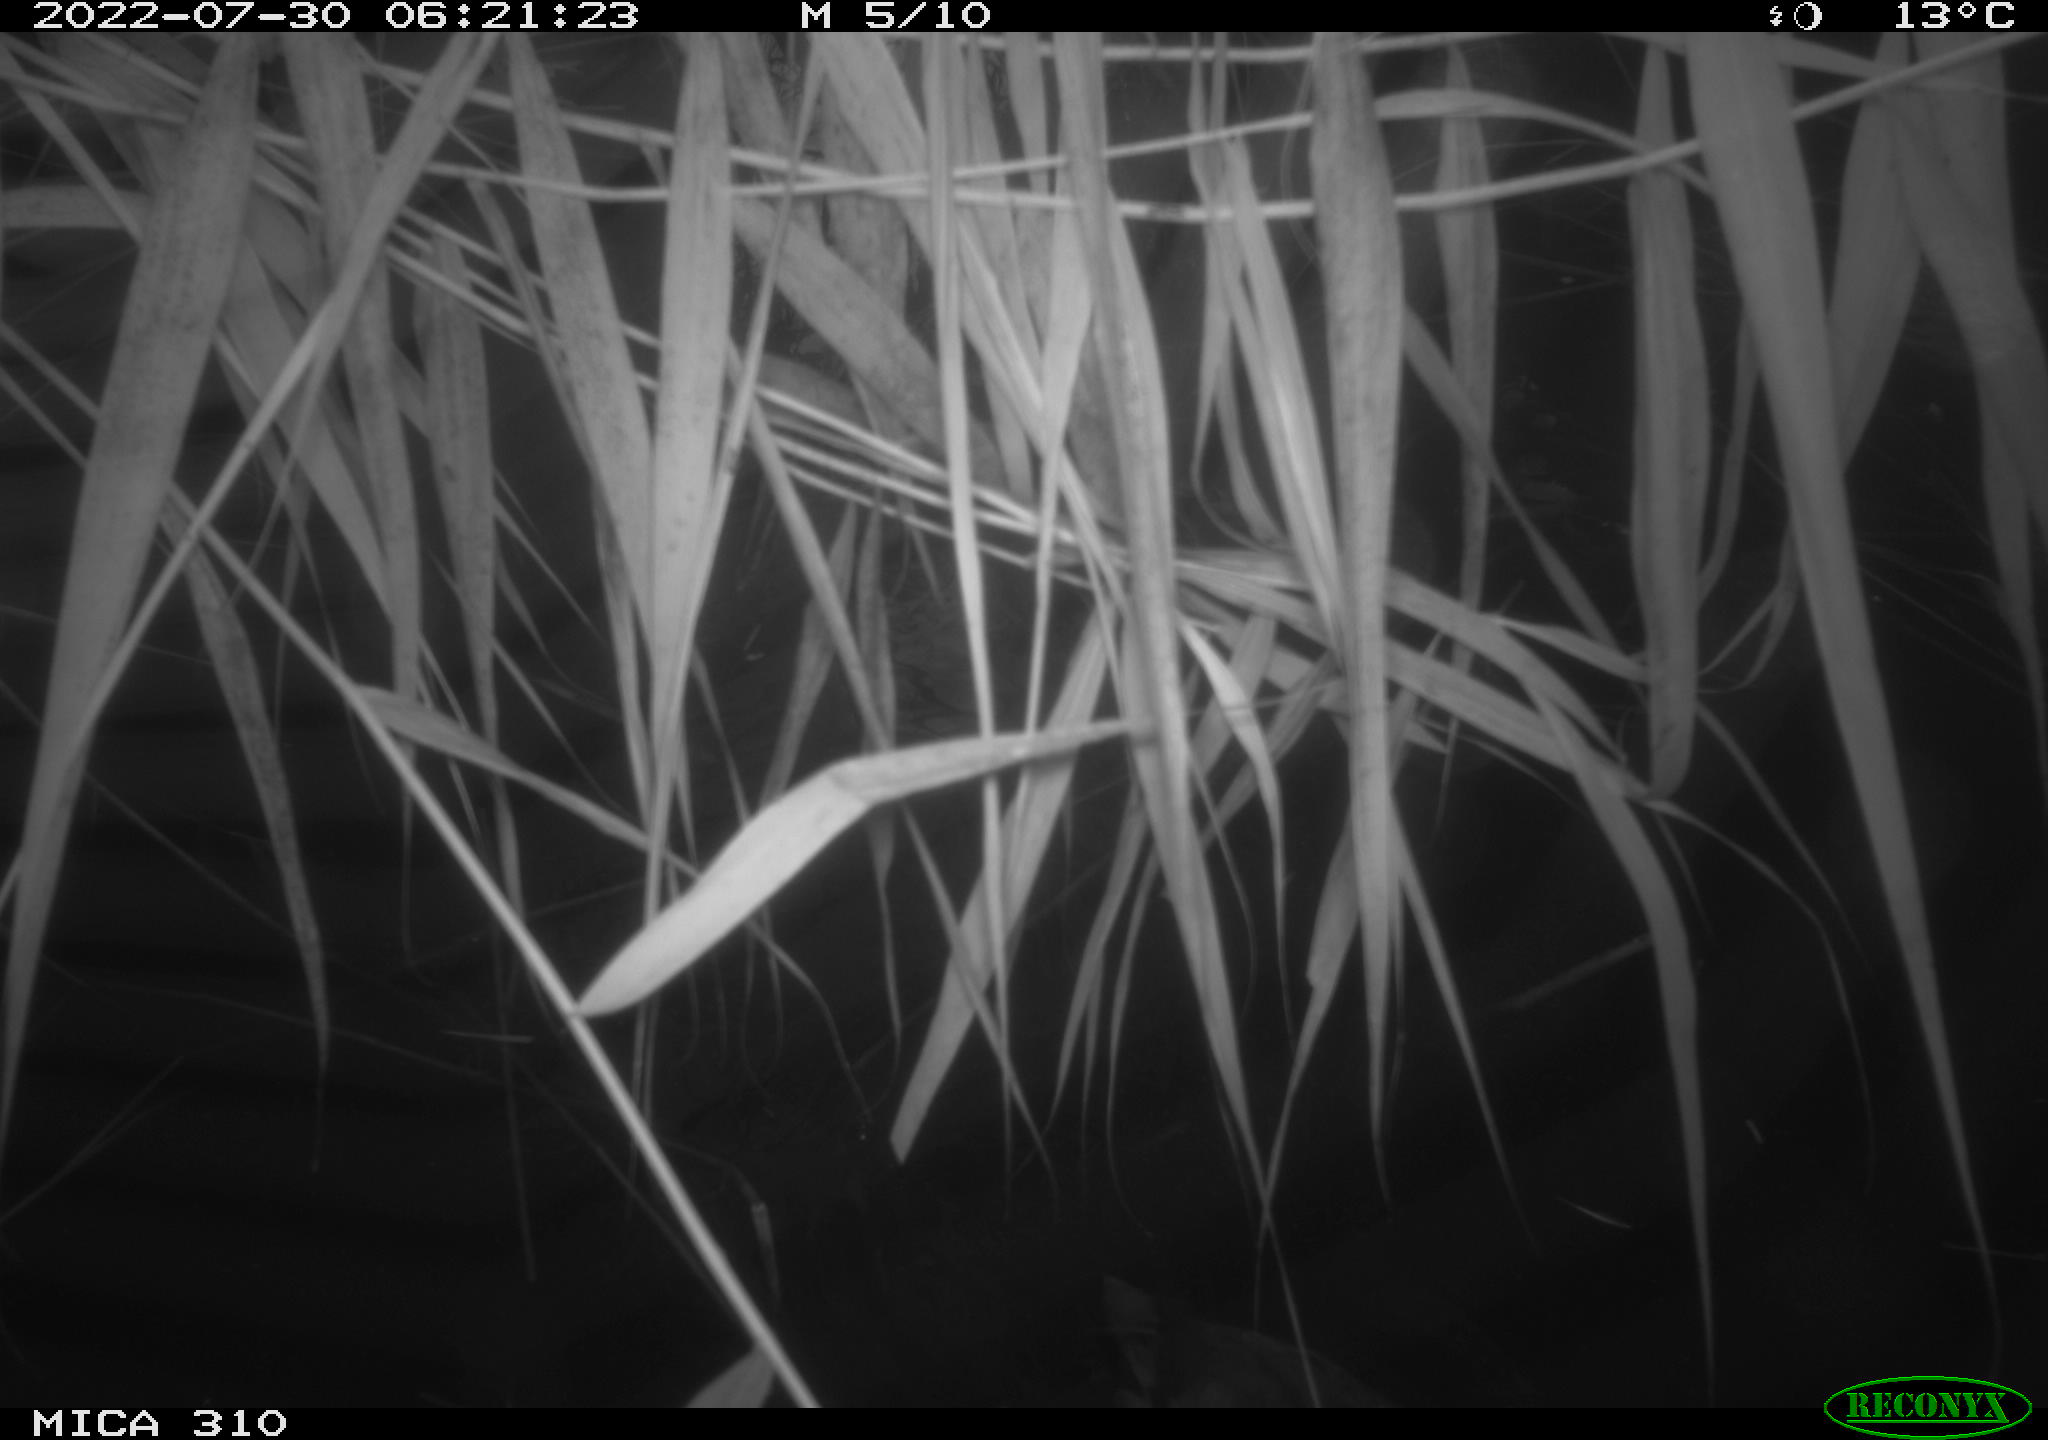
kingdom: Animalia
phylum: Chordata
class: Aves
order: Gruiformes
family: Rallidae
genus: Fulica
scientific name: Fulica atra
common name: Eurasian coot
